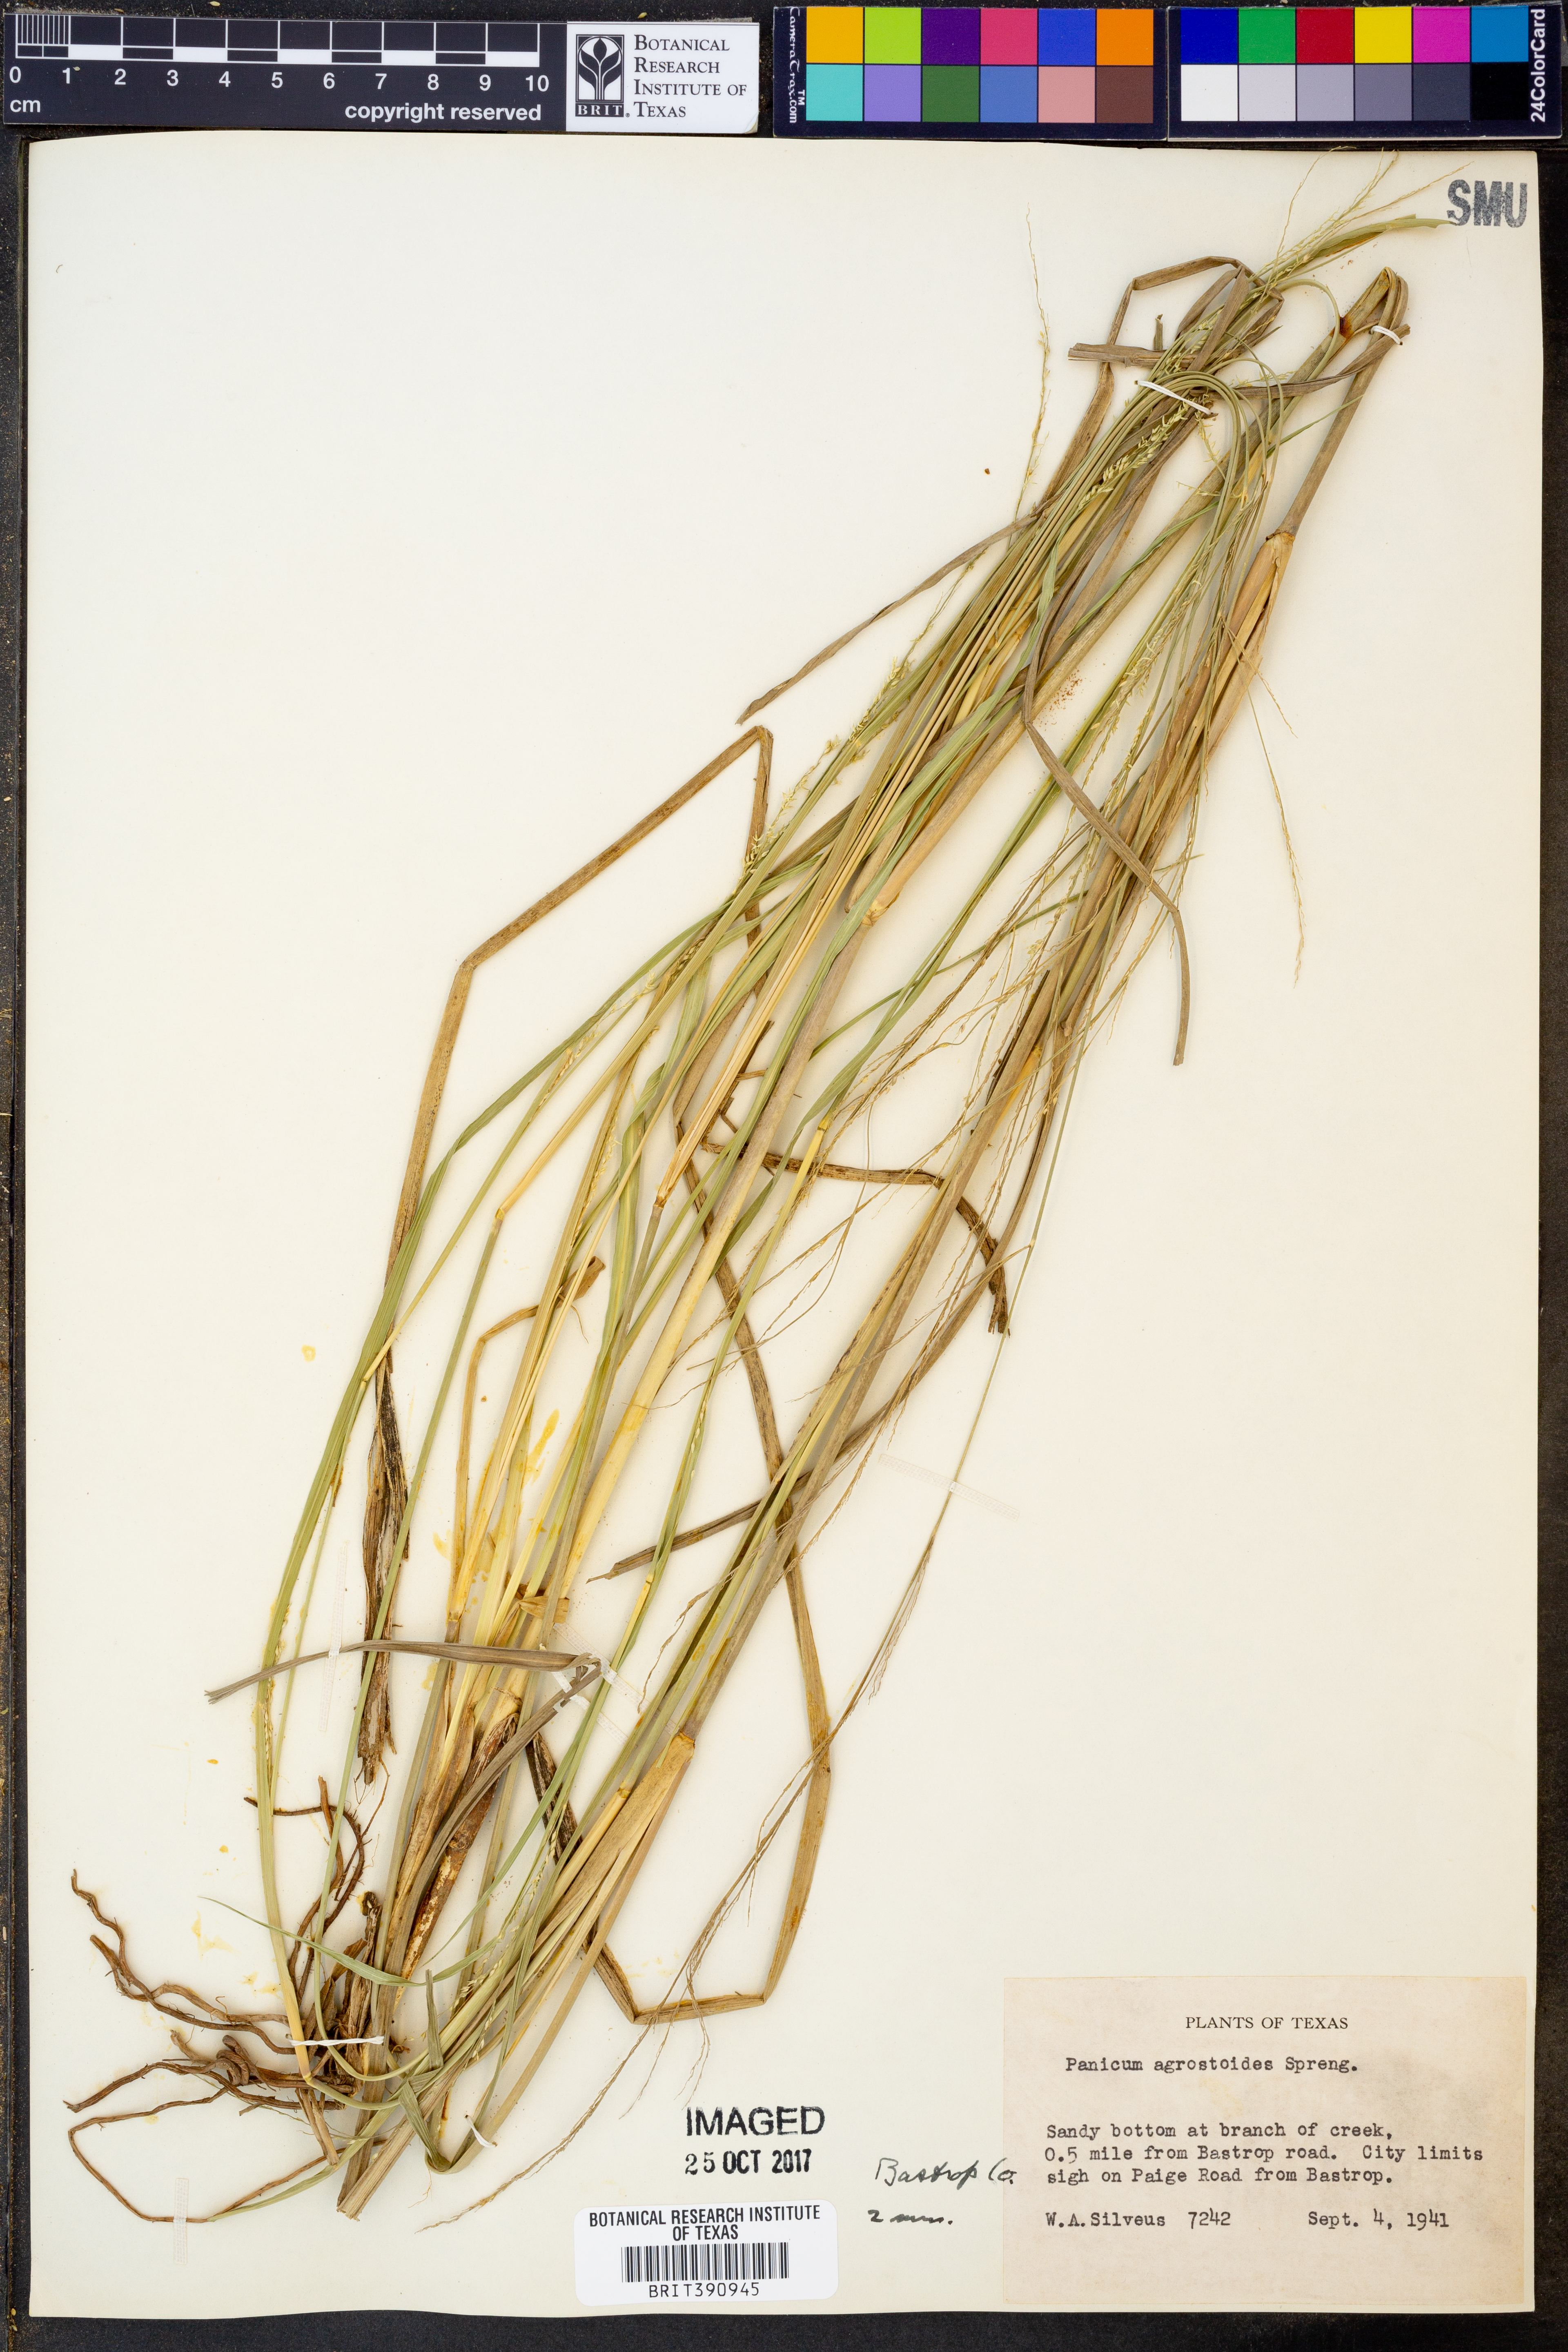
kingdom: Plantae
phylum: Tracheophyta
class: Liliopsida
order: Poales
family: Poaceae
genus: Steinchisma
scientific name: Steinchisma laxum
